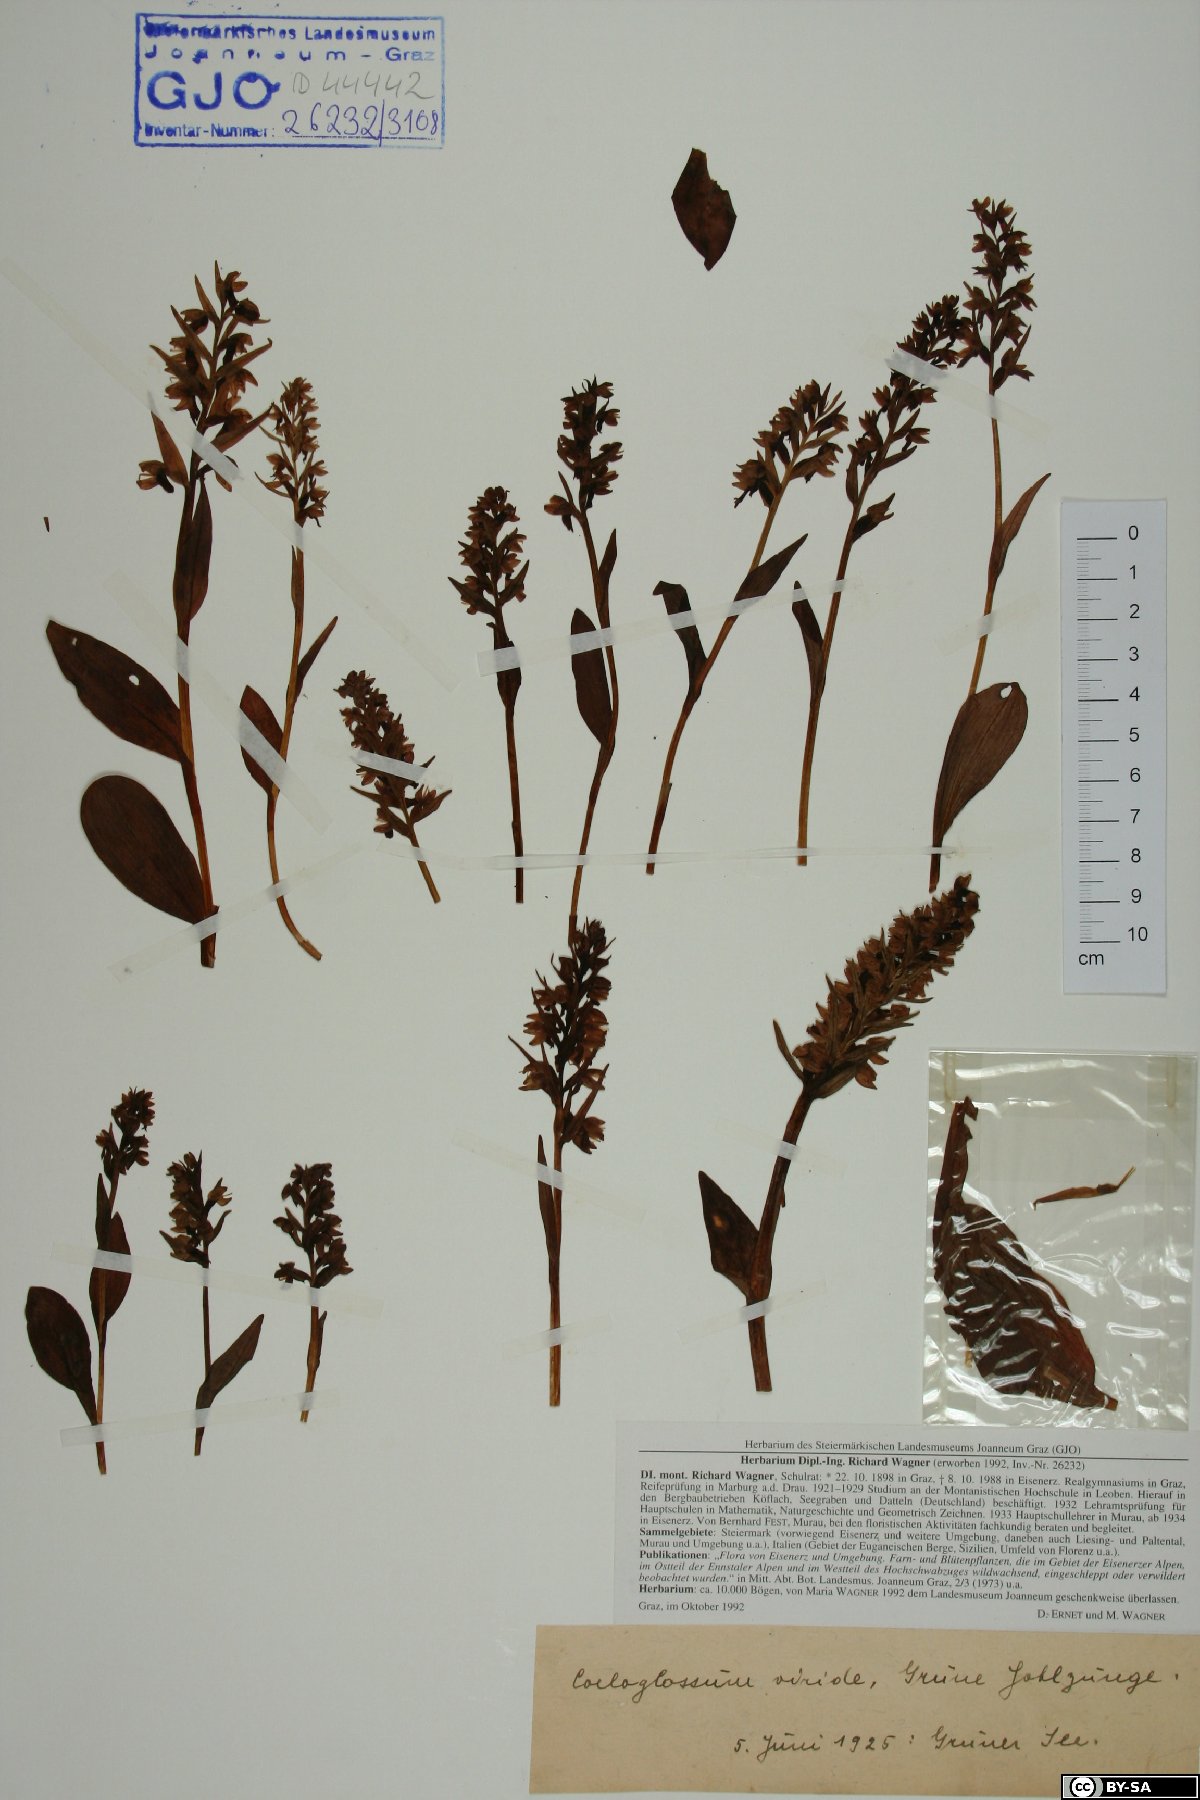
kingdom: Plantae
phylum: Tracheophyta
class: Liliopsida
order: Asparagales
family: Orchidaceae
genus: Dactylorhiza
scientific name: Dactylorhiza viridis
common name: Longbract frog orchid
